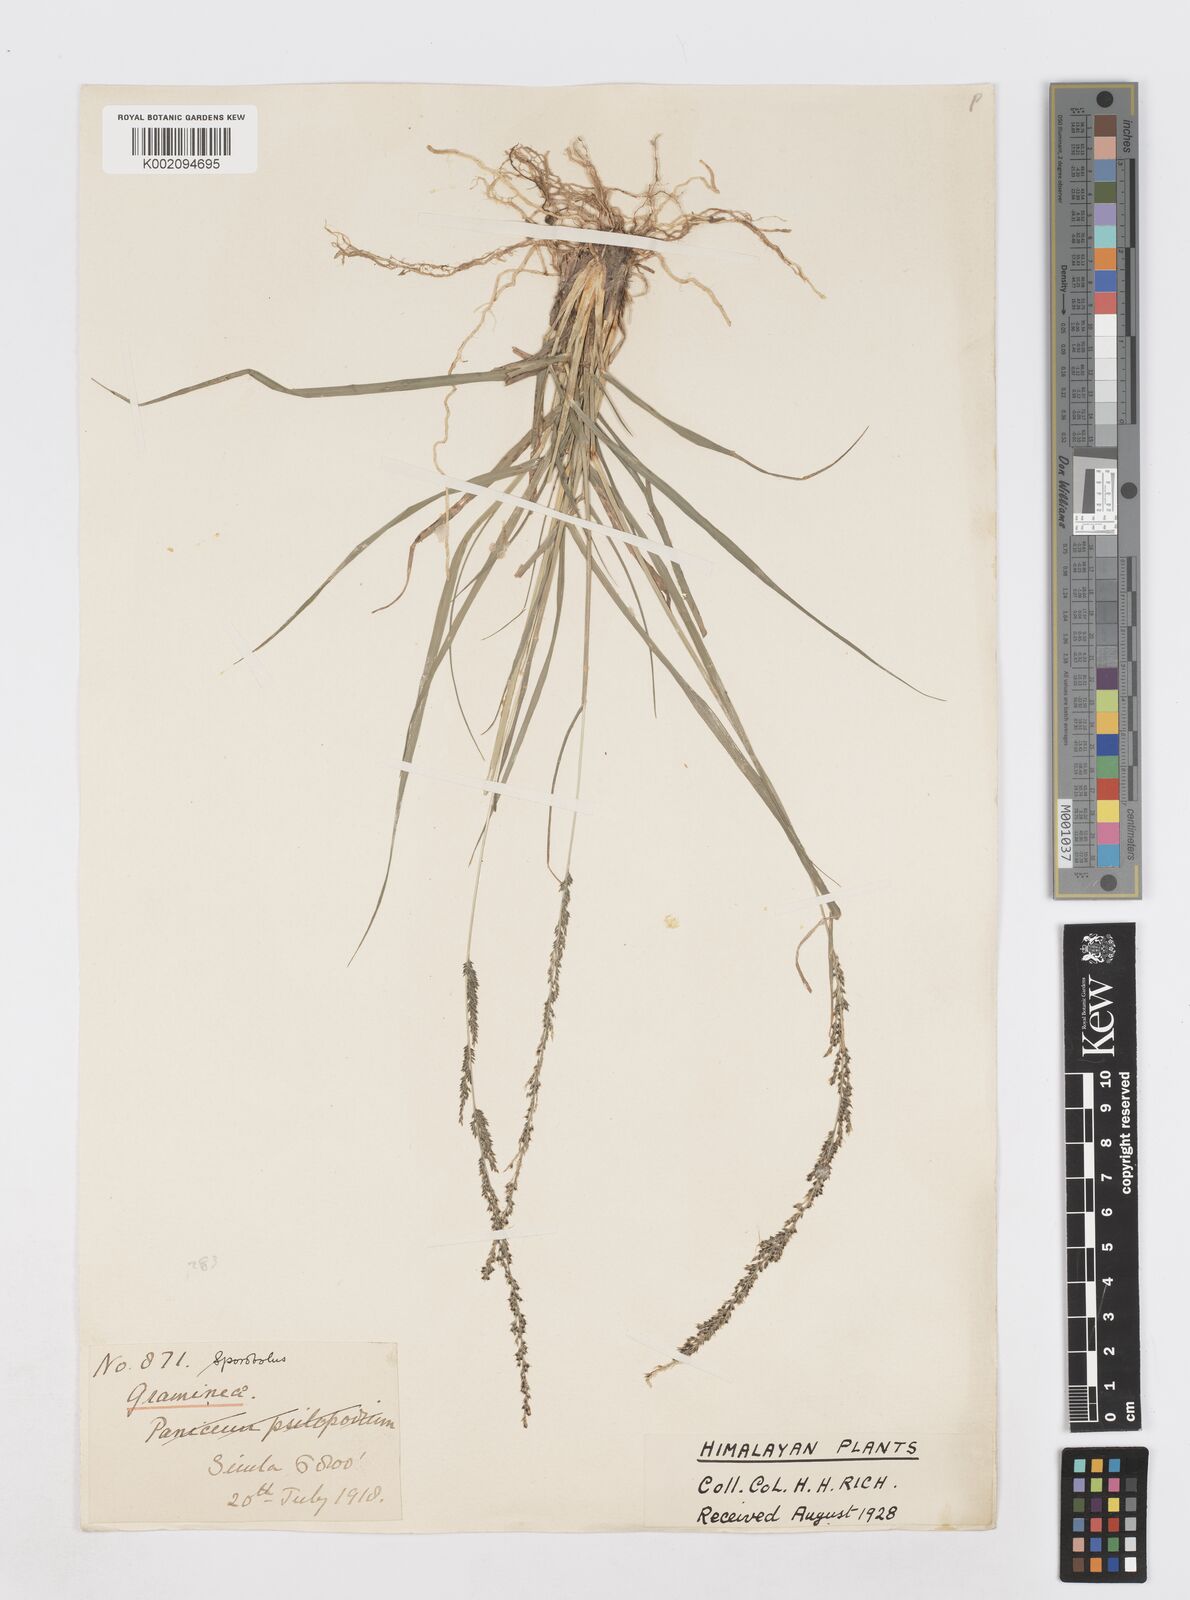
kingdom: Plantae
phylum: Tracheophyta
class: Liliopsida
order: Poales
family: Poaceae
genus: Sporobolus
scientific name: Sporobolus
